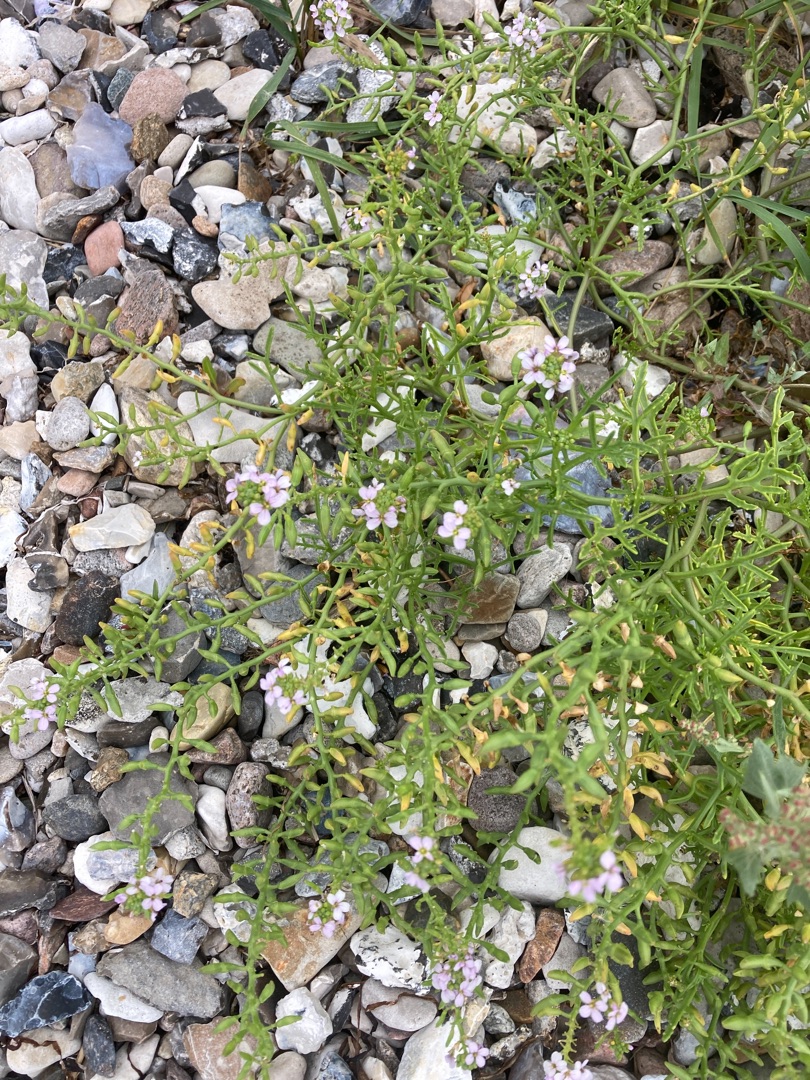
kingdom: Plantae
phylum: Tracheophyta
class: Magnoliopsida
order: Brassicales
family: Brassicaceae
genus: Cakile
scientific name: Cakile maritima
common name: Strandsennep
